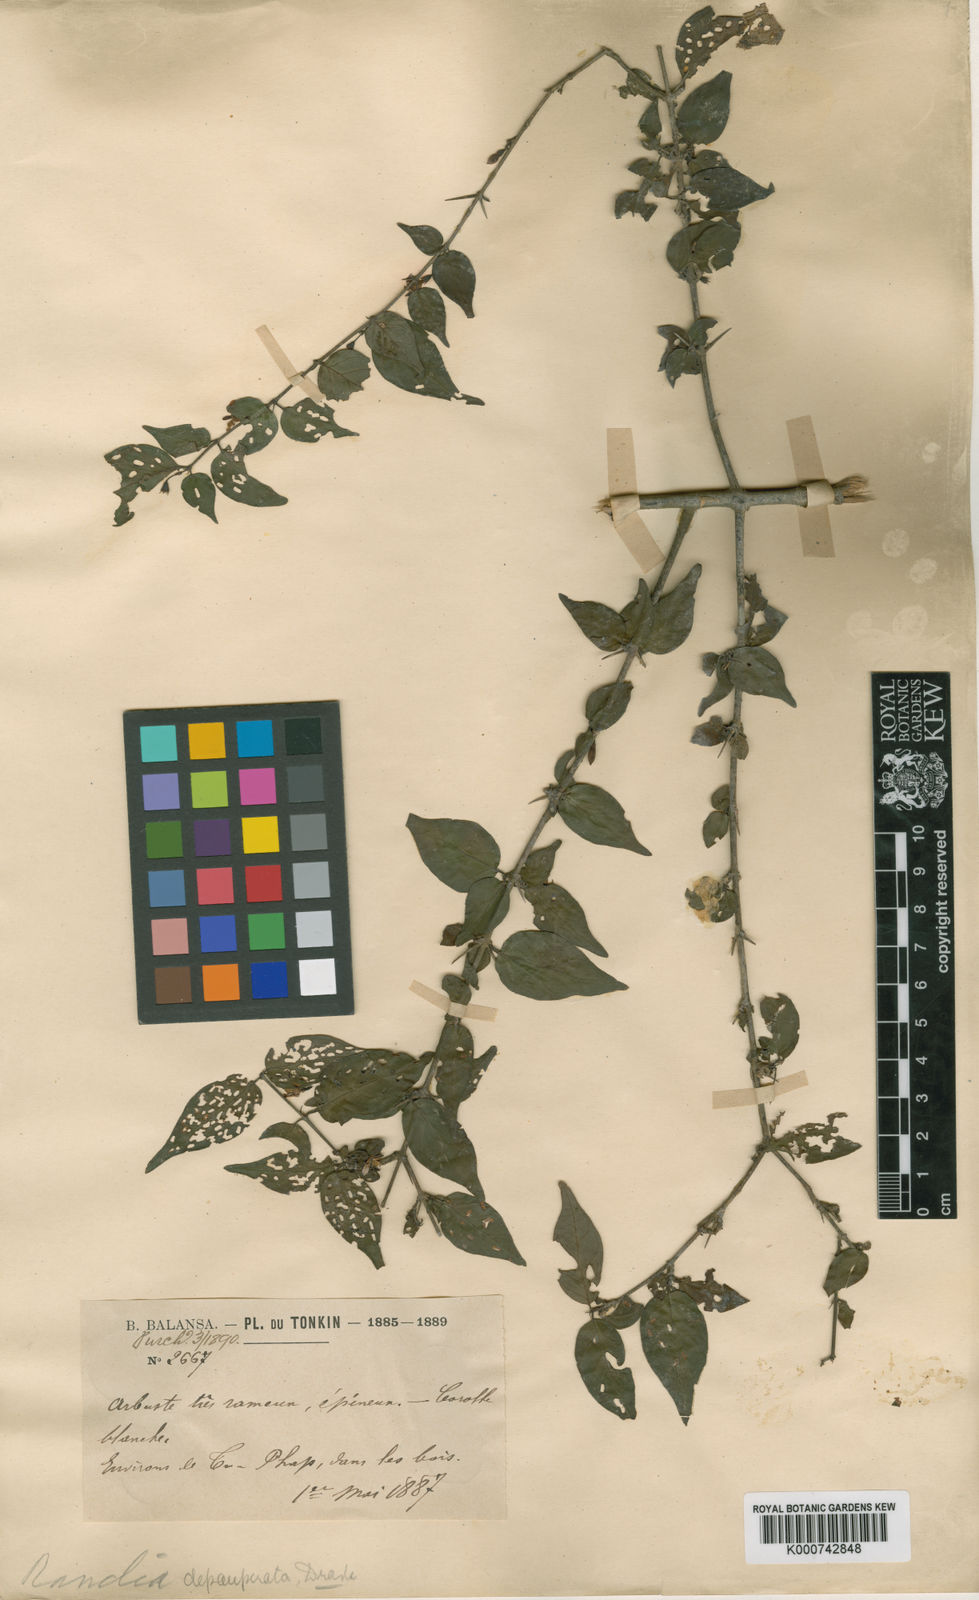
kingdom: Plantae
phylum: Tracheophyta
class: Magnoliopsida
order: Gentianales
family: Rubiaceae
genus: Benkara
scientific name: Benkara depauperata
